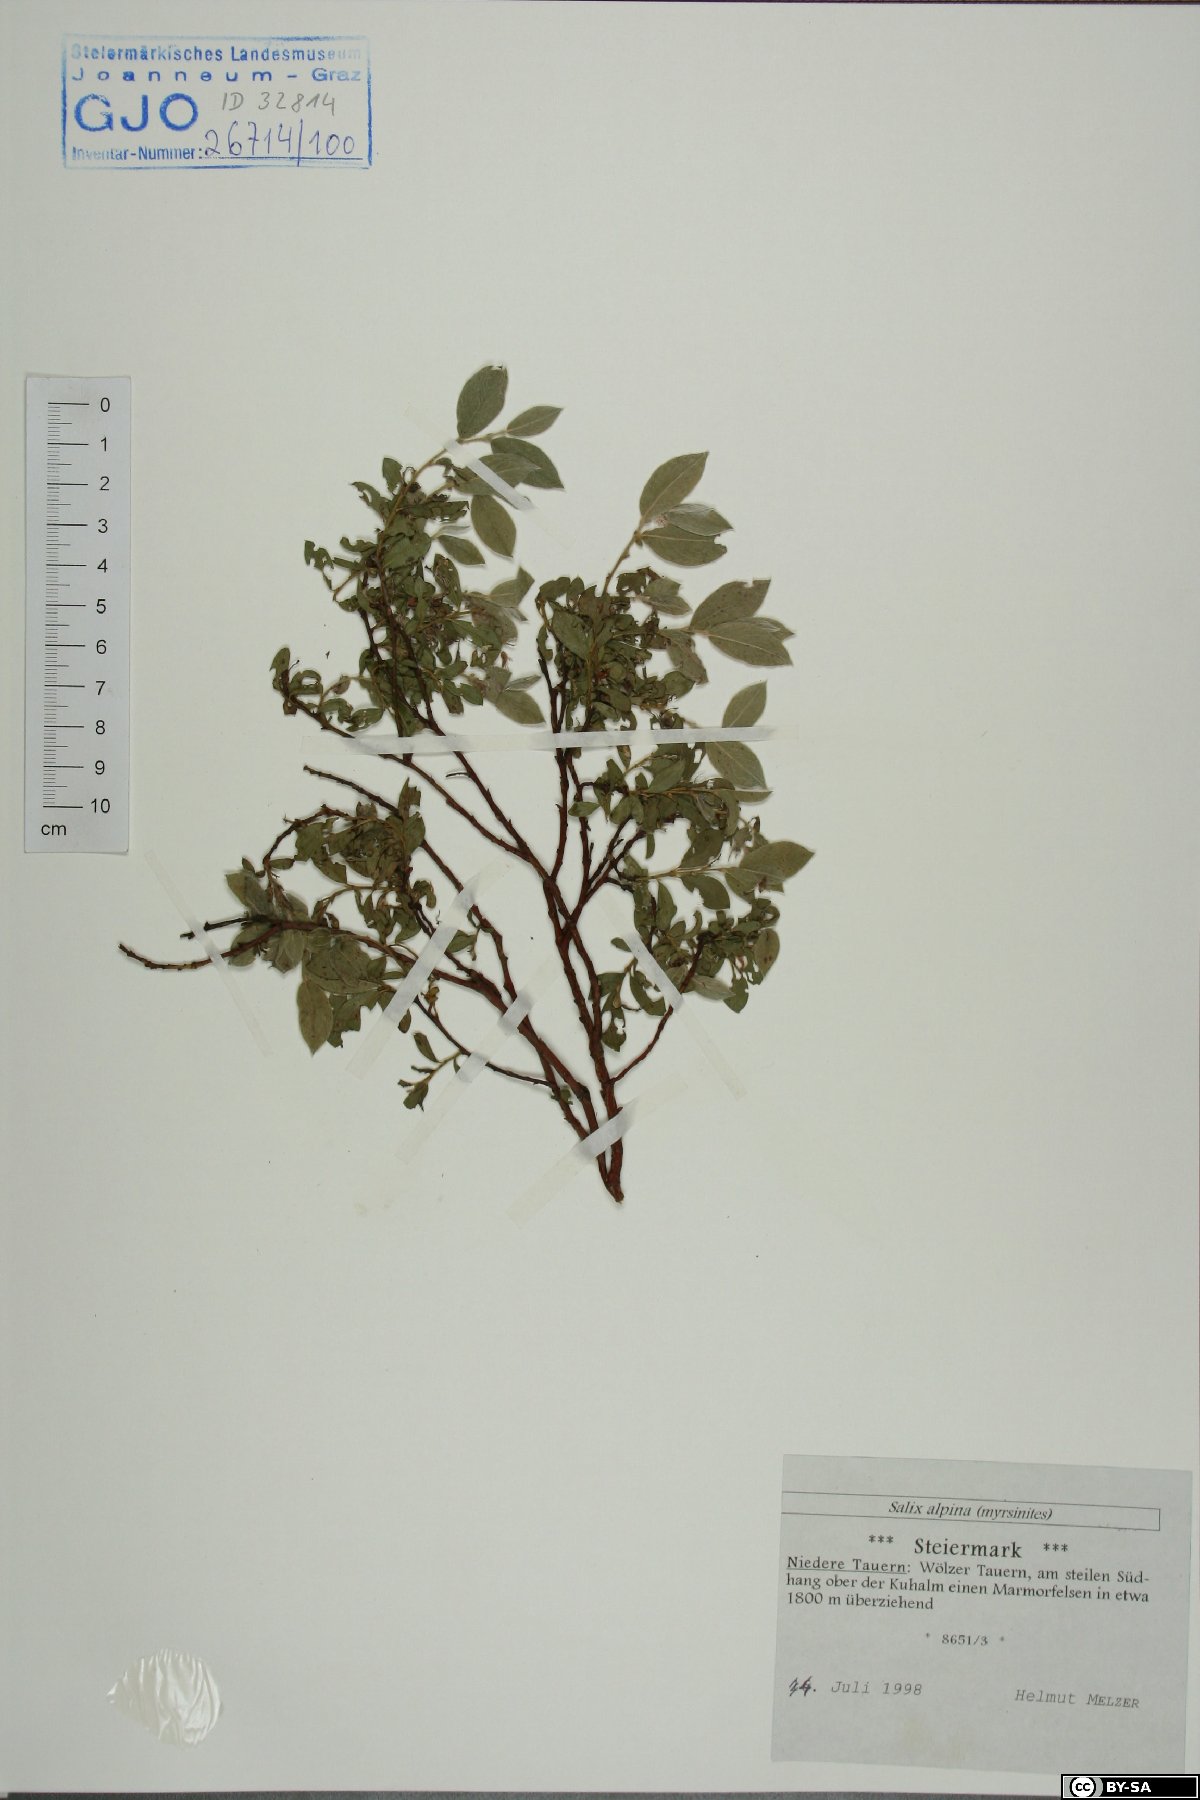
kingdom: Plantae
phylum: Tracheophyta
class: Magnoliopsida
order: Malpighiales
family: Salicaceae
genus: Salix
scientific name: Salix alpina
